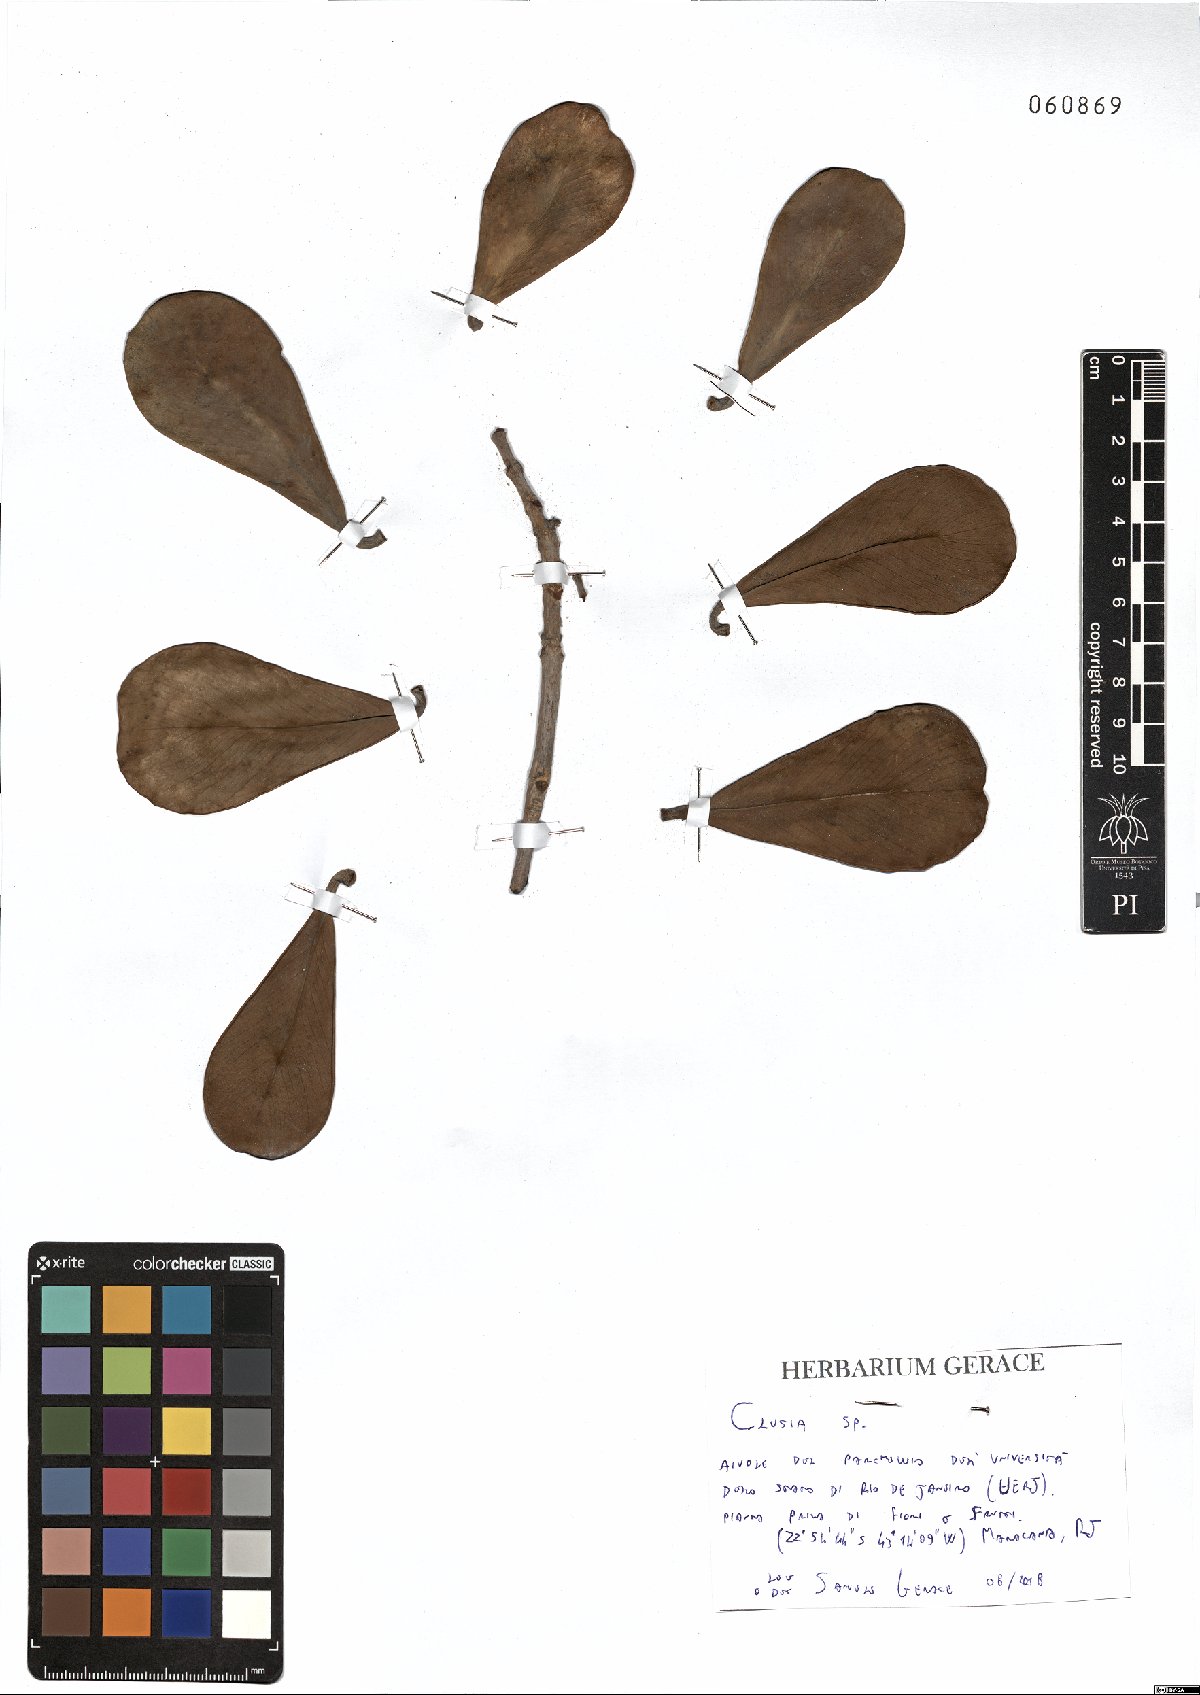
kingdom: Plantae
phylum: Tracheophyta
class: Magnoliopsida
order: Malpighiales
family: Clusiaceae
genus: Clusia
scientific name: Clusia
